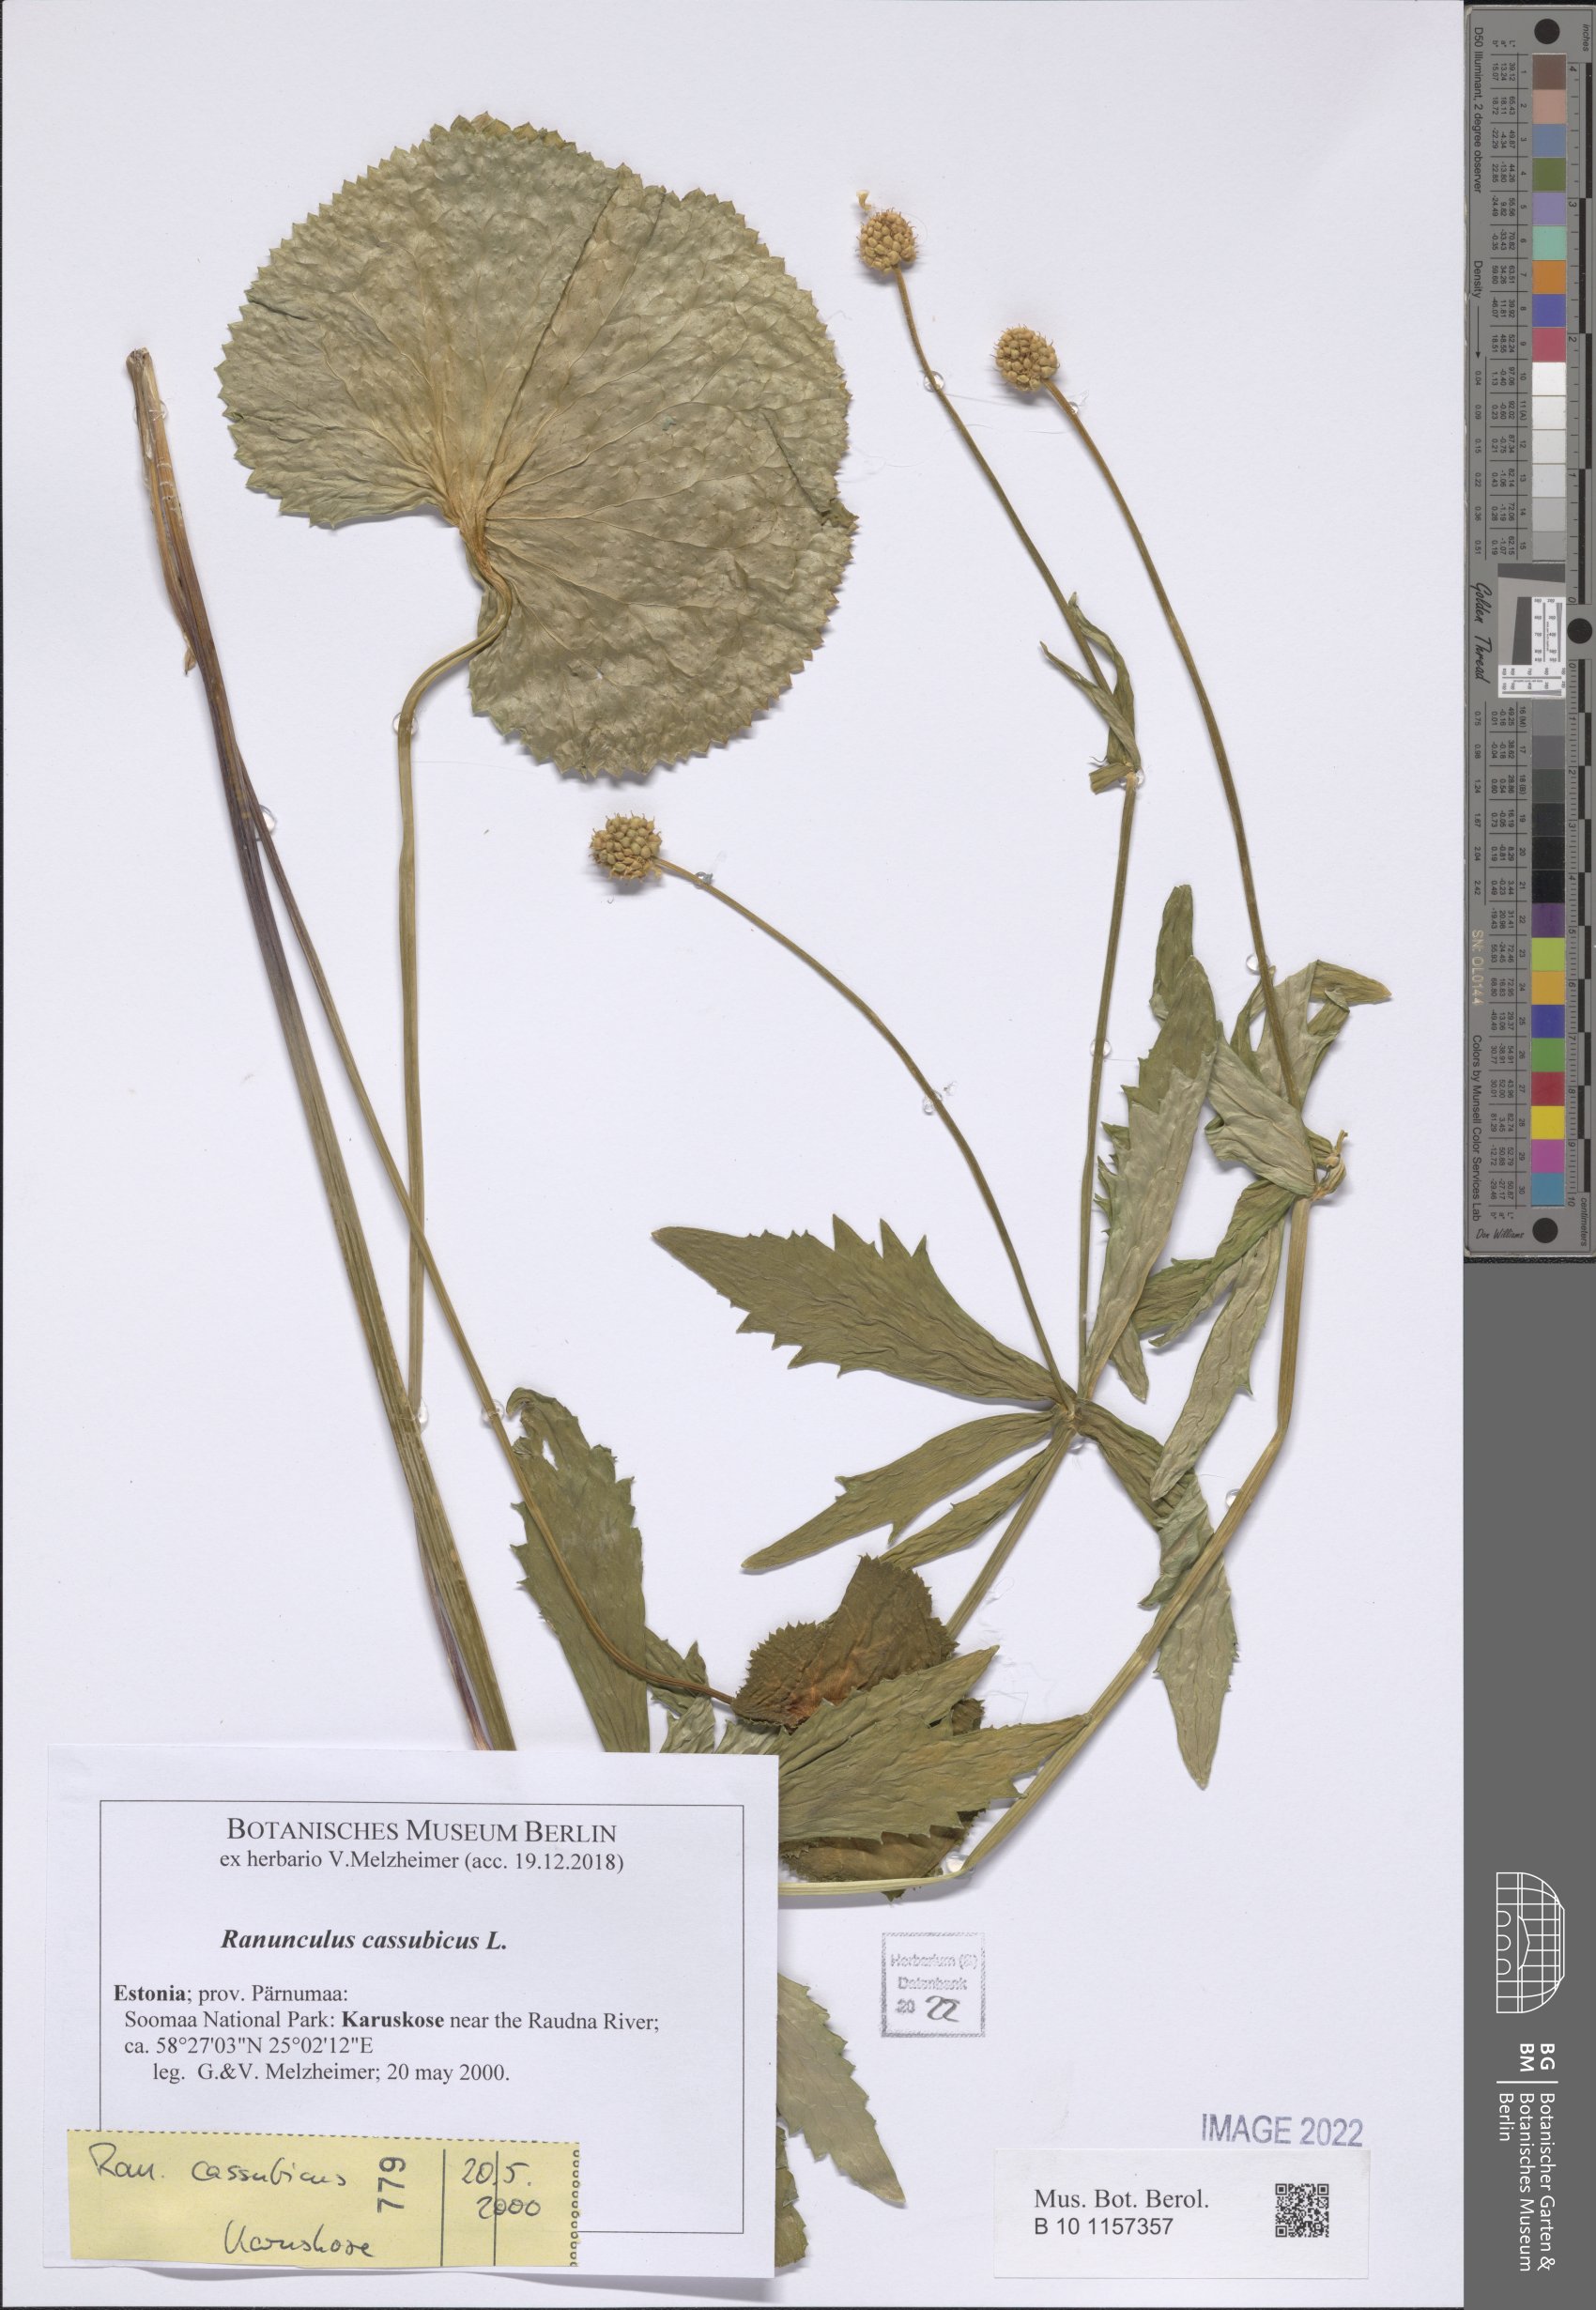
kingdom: Plantae
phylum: Tracheophyta
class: Magnoliopsida
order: Ranunculales
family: Ranunculaceae
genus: Ranunculus
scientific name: Ranunculus cassubicus
